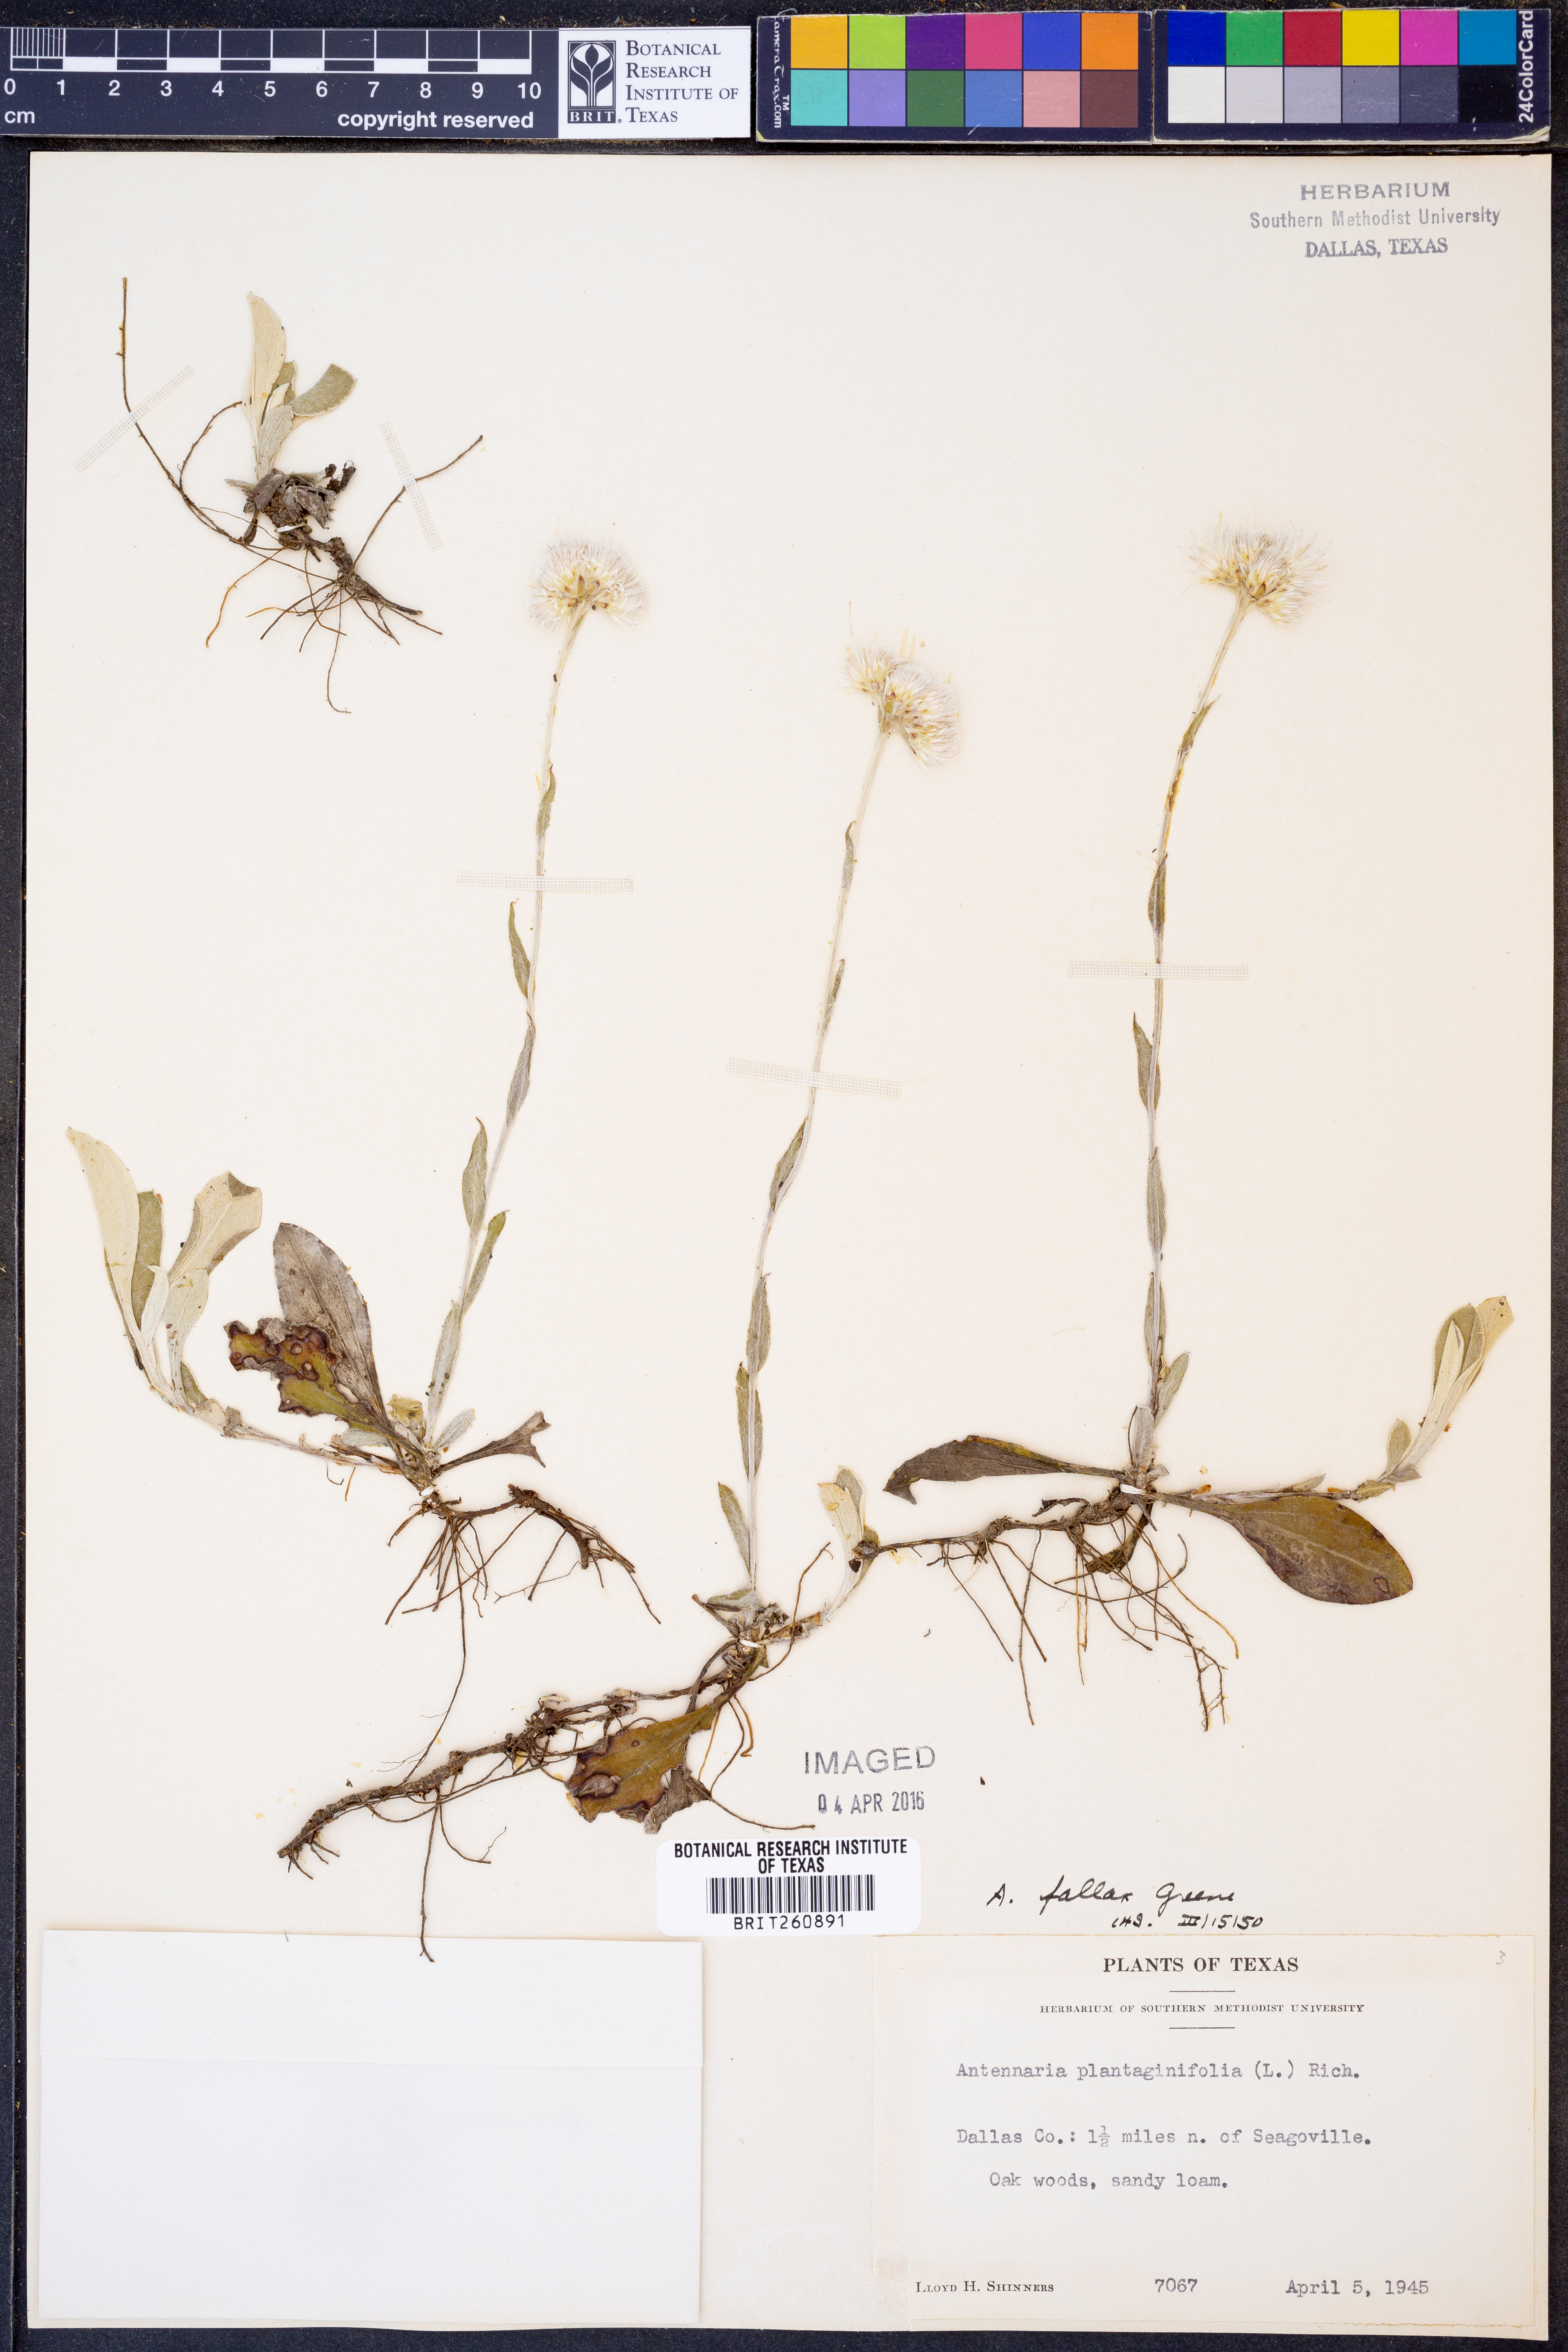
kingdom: Plantae
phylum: Tracheophyta
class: Magnoliopsida
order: Asterales
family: Asteraceae
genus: Antennaria
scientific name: Antennaria parlinii
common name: Parlin's pussytoes
